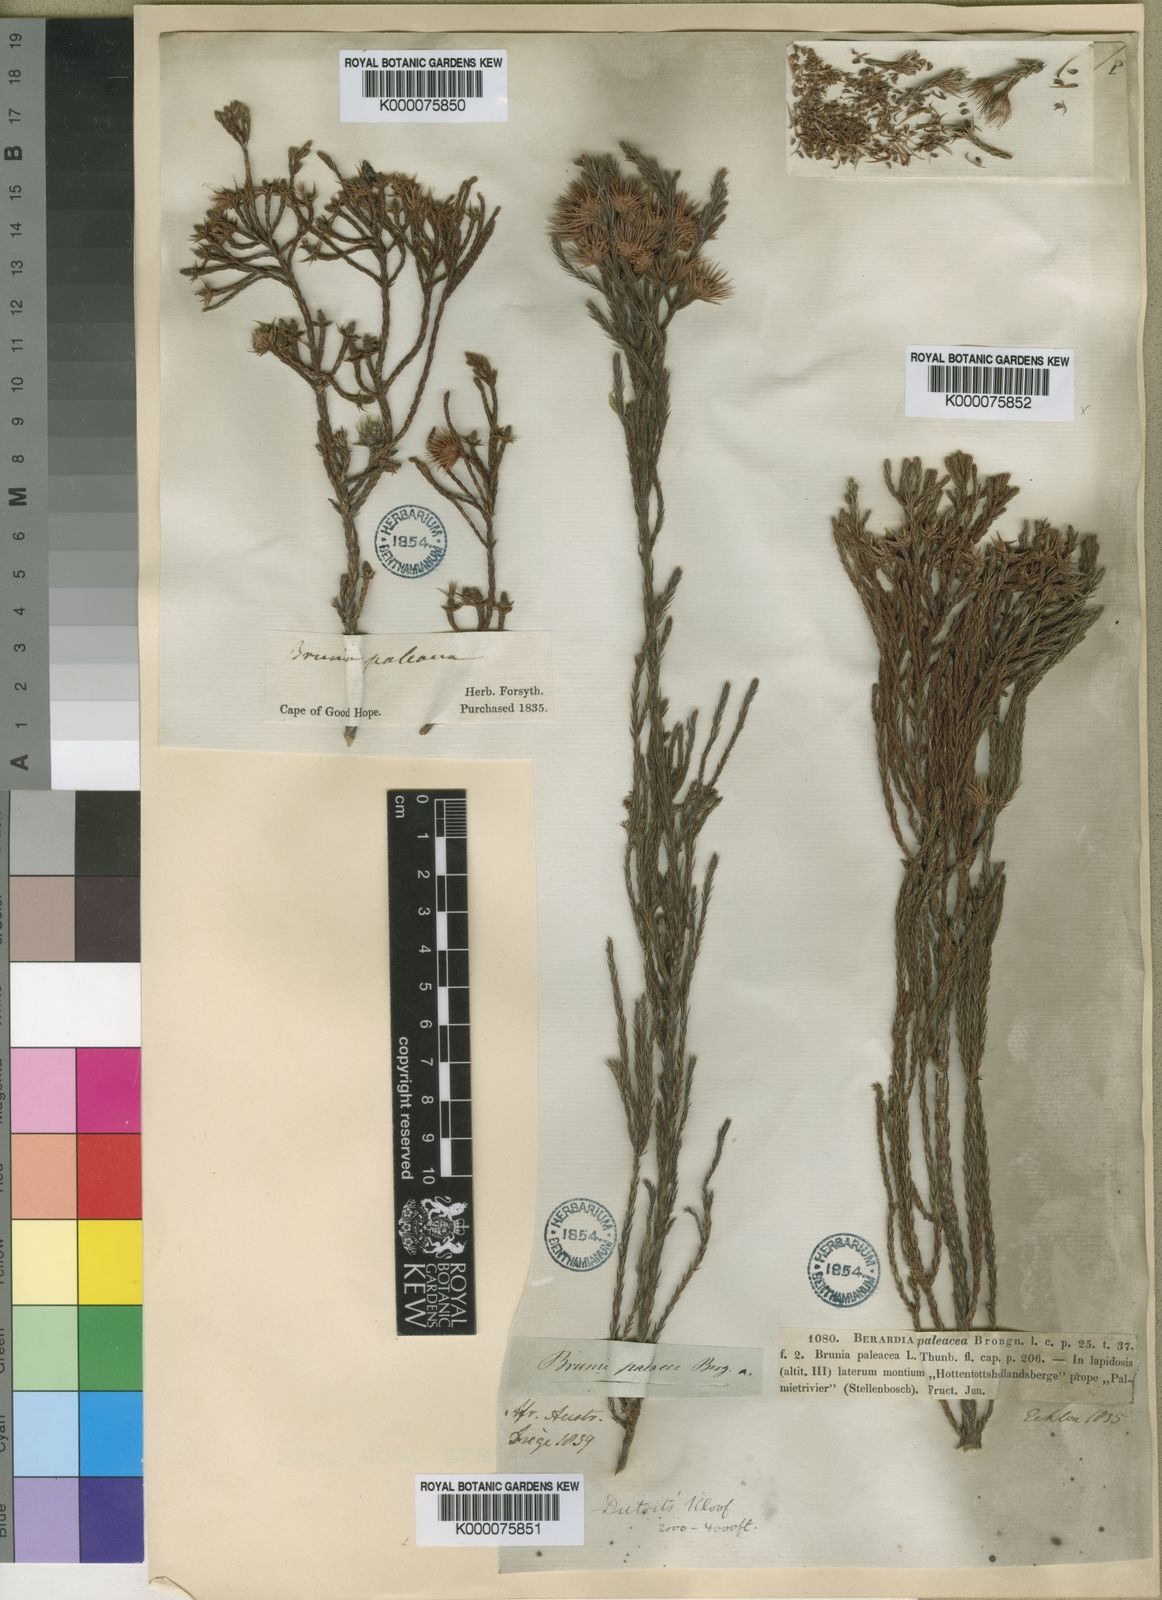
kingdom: Plantae
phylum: Tracheophyta
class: Magnoliopsida
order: Bruniales
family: Bruniaceae
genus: Brunia
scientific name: Brunia paleacea
